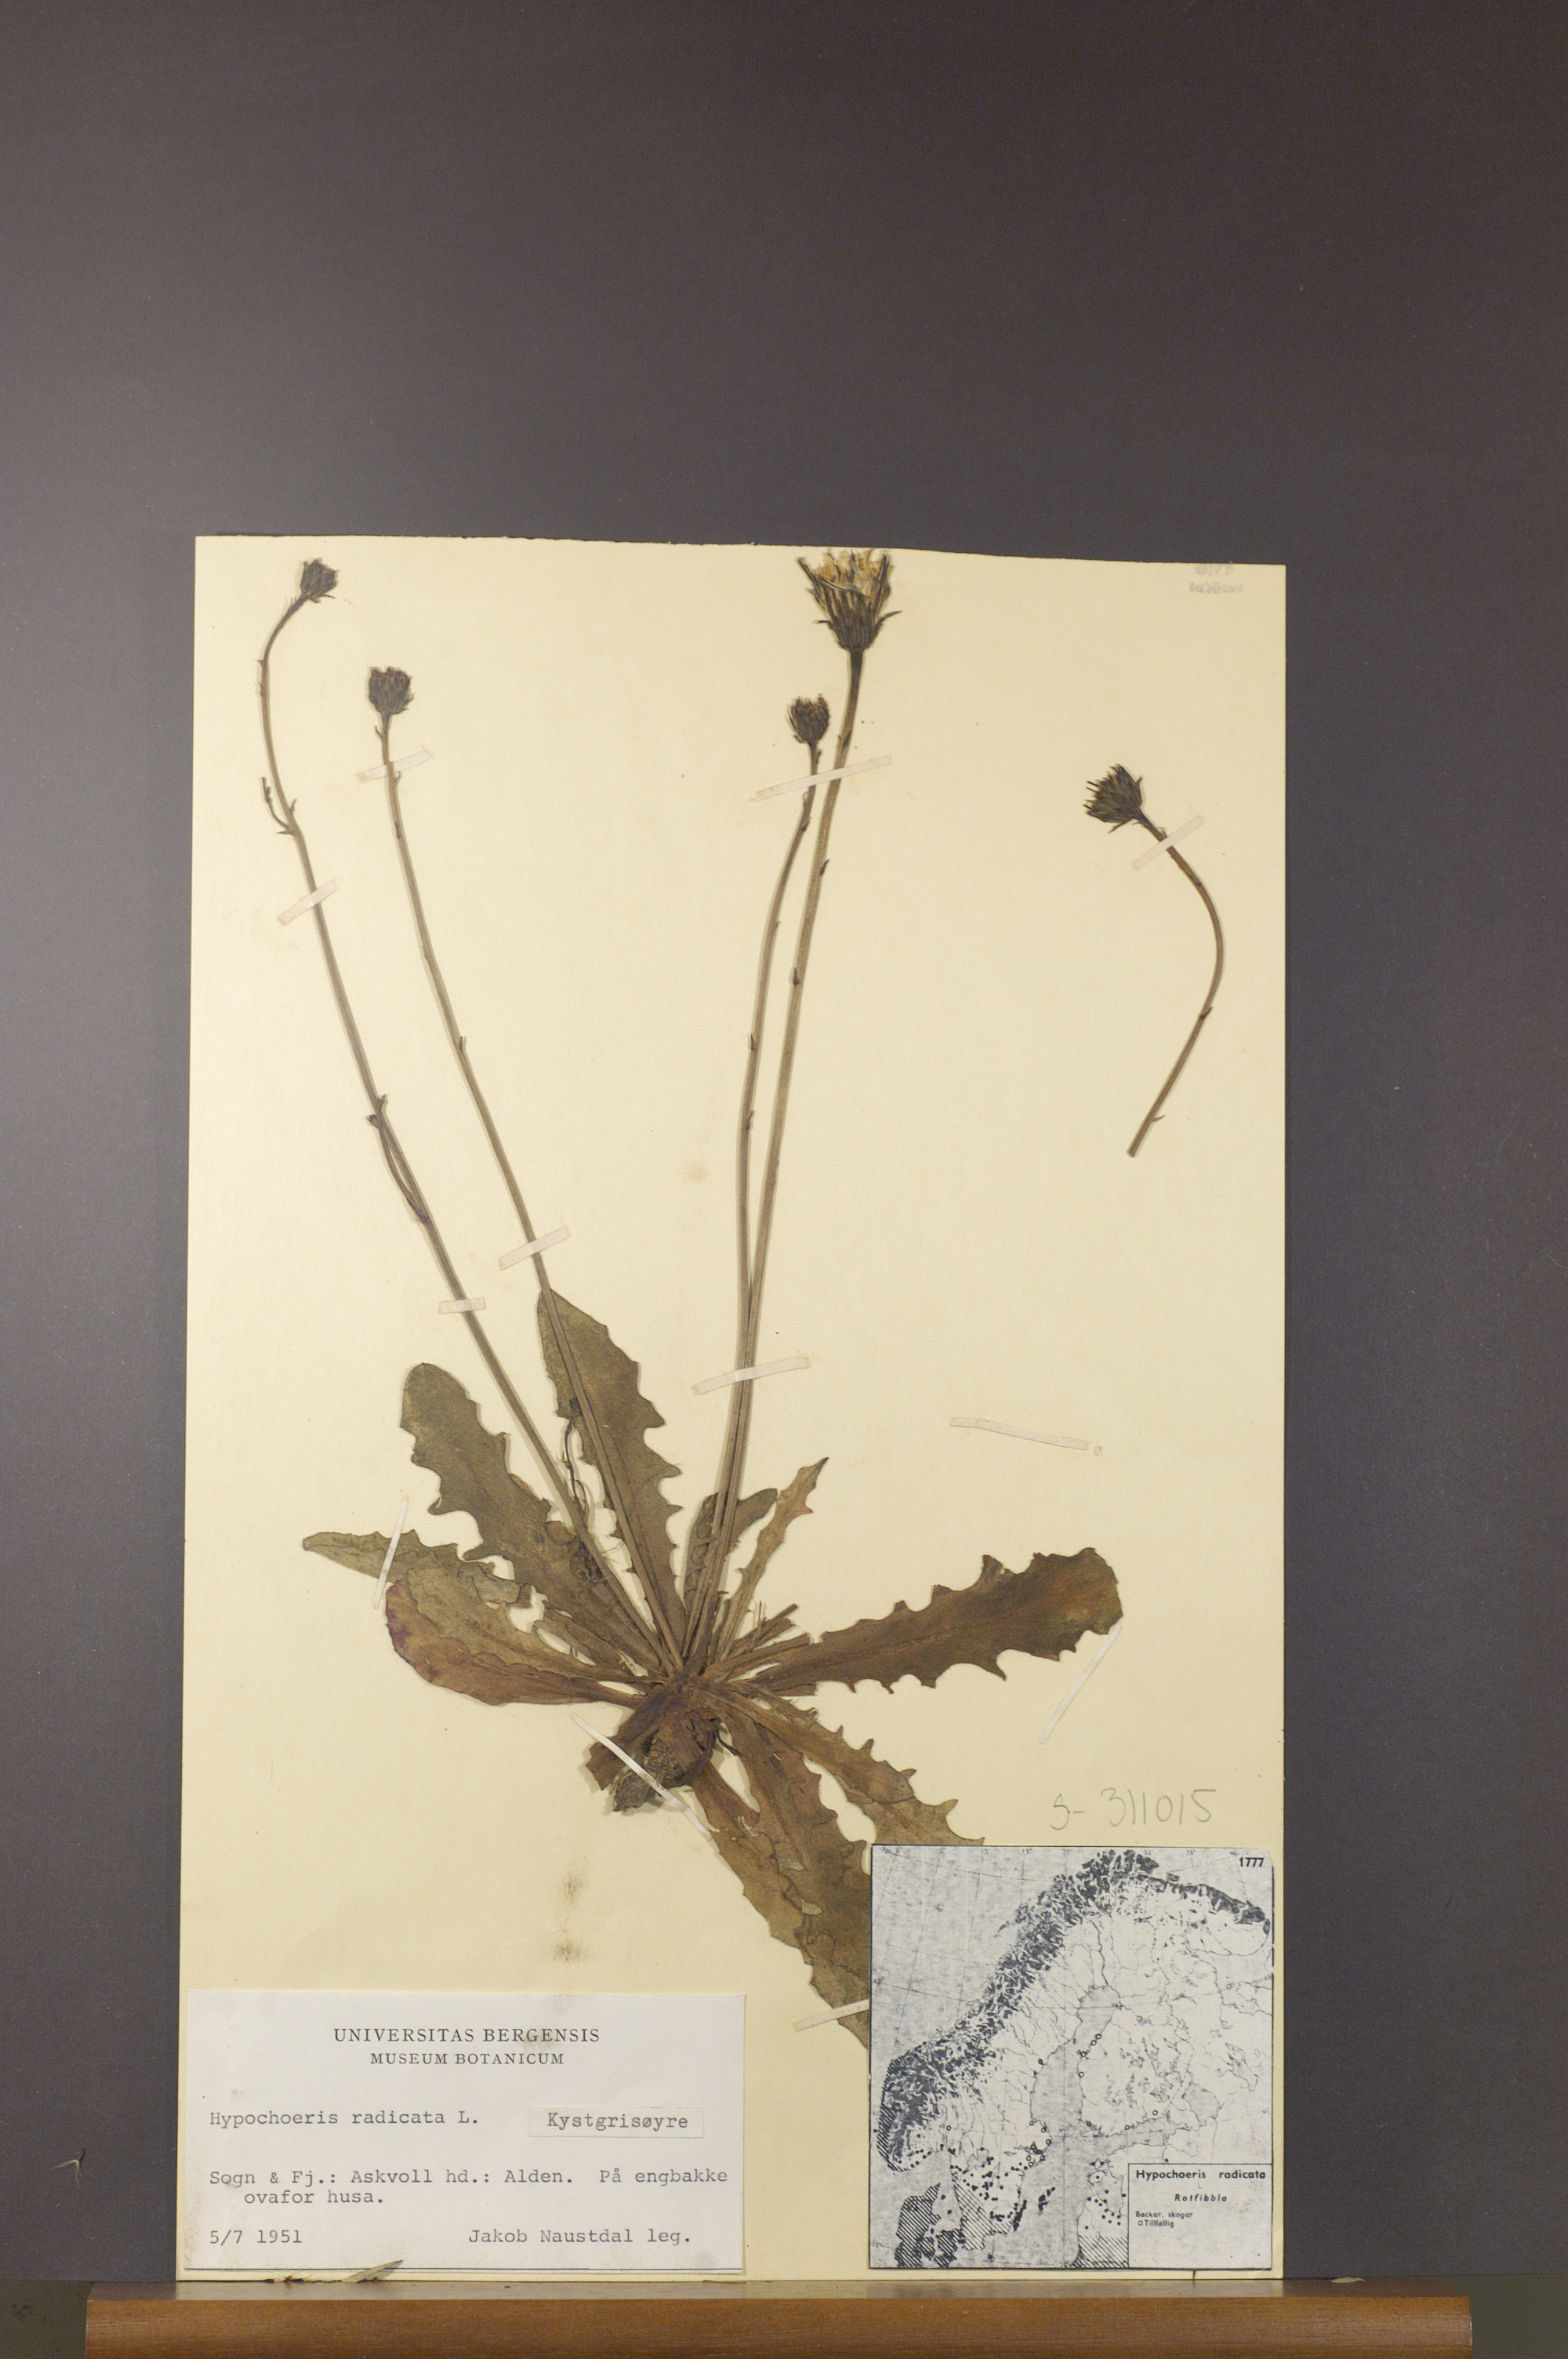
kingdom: Plantae
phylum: Tracheophyta
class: Magnoliopsida
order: Asterales
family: Asteraceae
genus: Hypochaeris
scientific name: Hypochaeris radicata
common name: Flatweed
